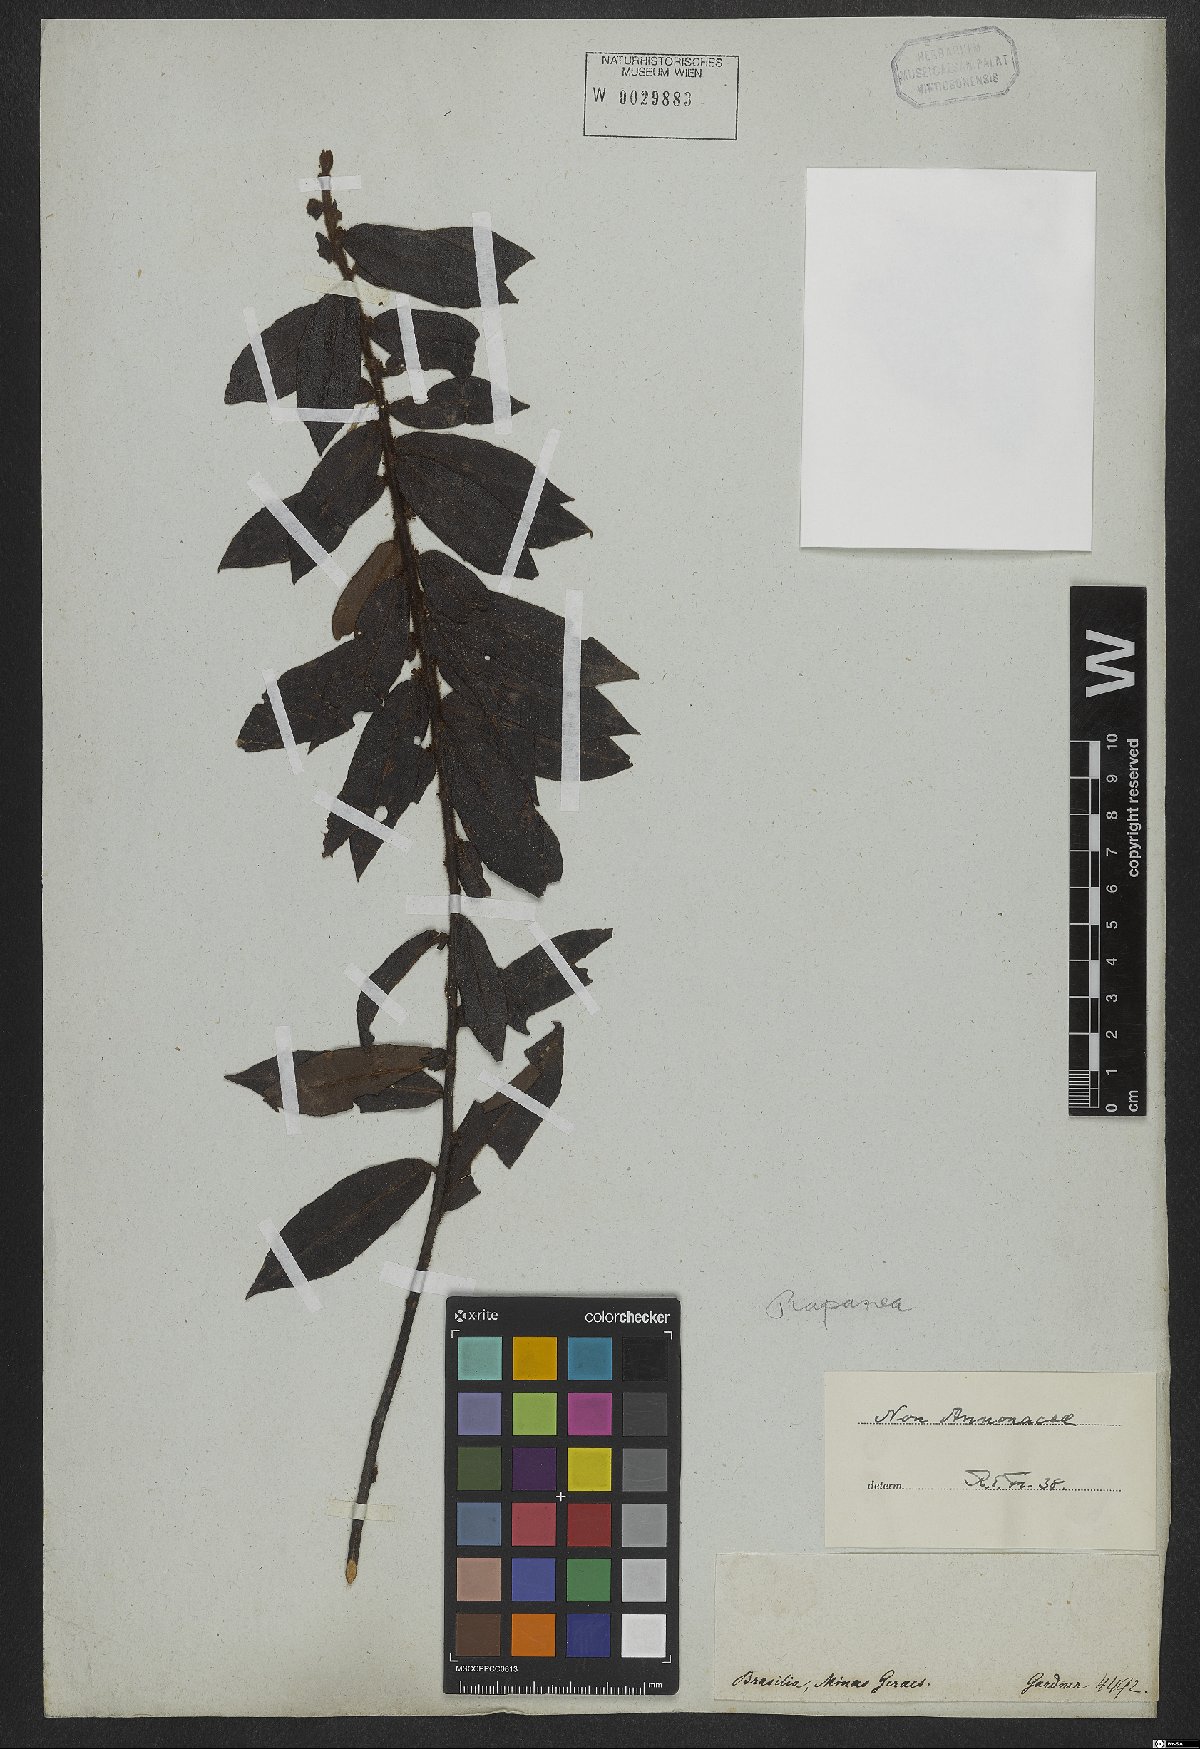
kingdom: Plantae
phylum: Tracheophyta
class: Magnoliopsida
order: Ericales
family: Primulaceae
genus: Myrsine
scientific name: Myrsine robusta
